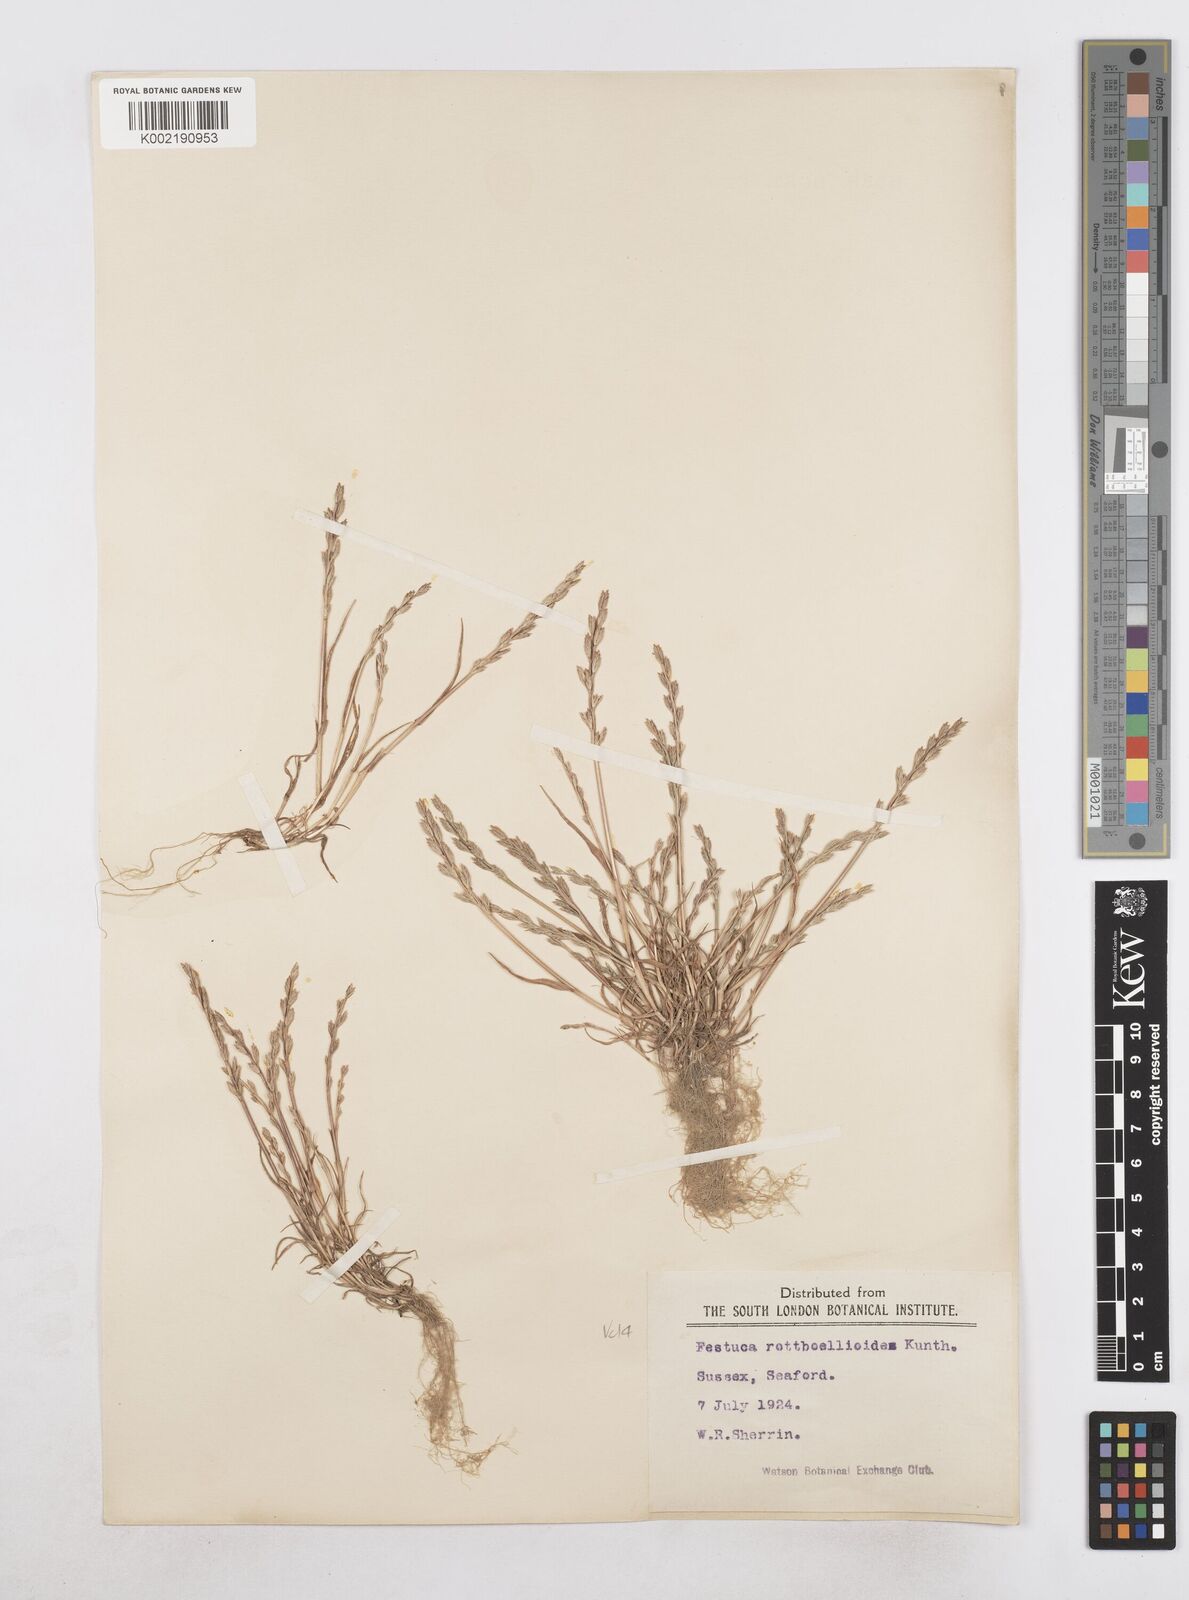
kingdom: Plantae
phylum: Tracheophyta
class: Liliopsida
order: Poales
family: Poaceae
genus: Catapodium
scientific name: Catapodium marinum
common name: Sea fern-grass
